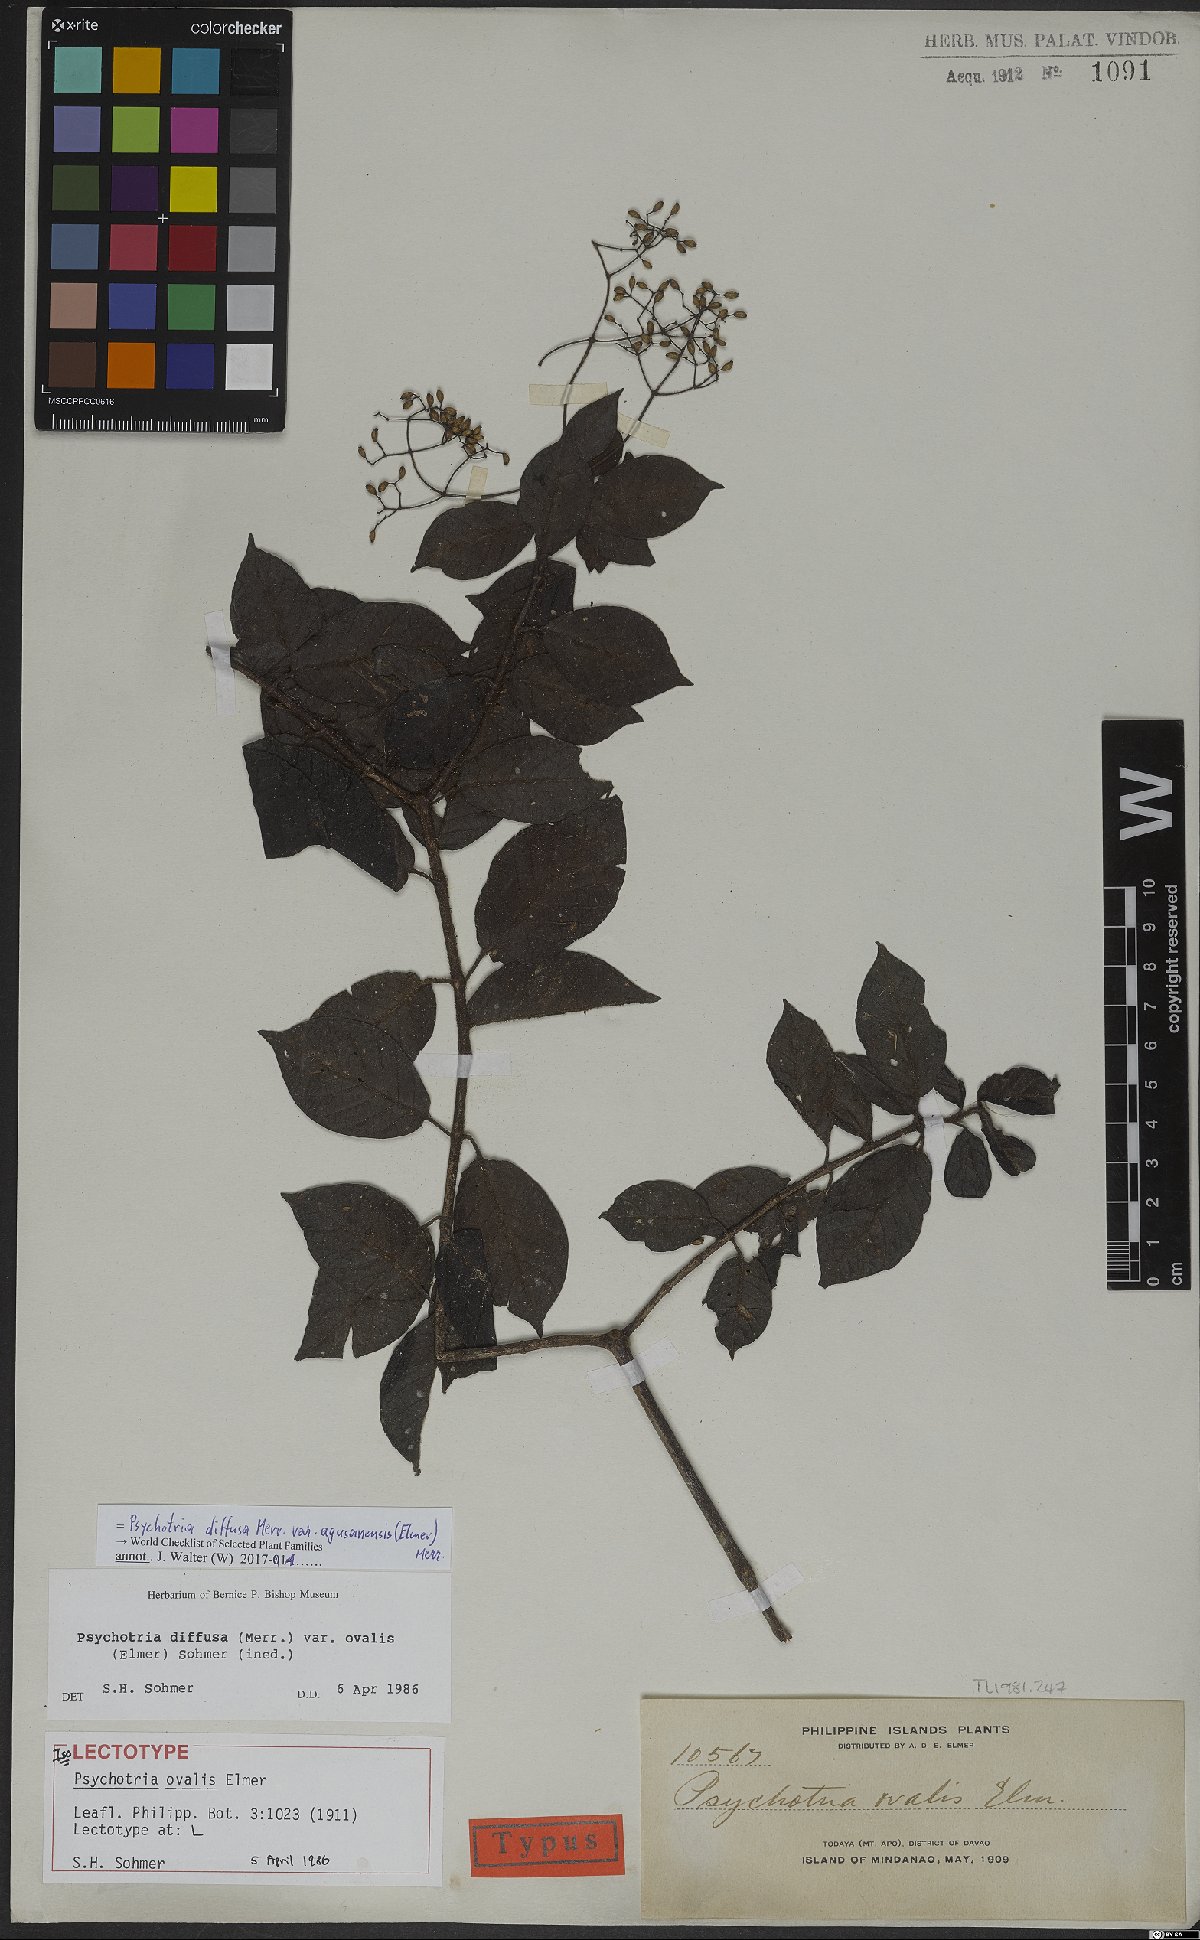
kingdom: Plantae
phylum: Tracheophyta
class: Magnoliopsida
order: Gentianales
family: Rubiaceae
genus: Psychotria
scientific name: Psychotria diffusa
